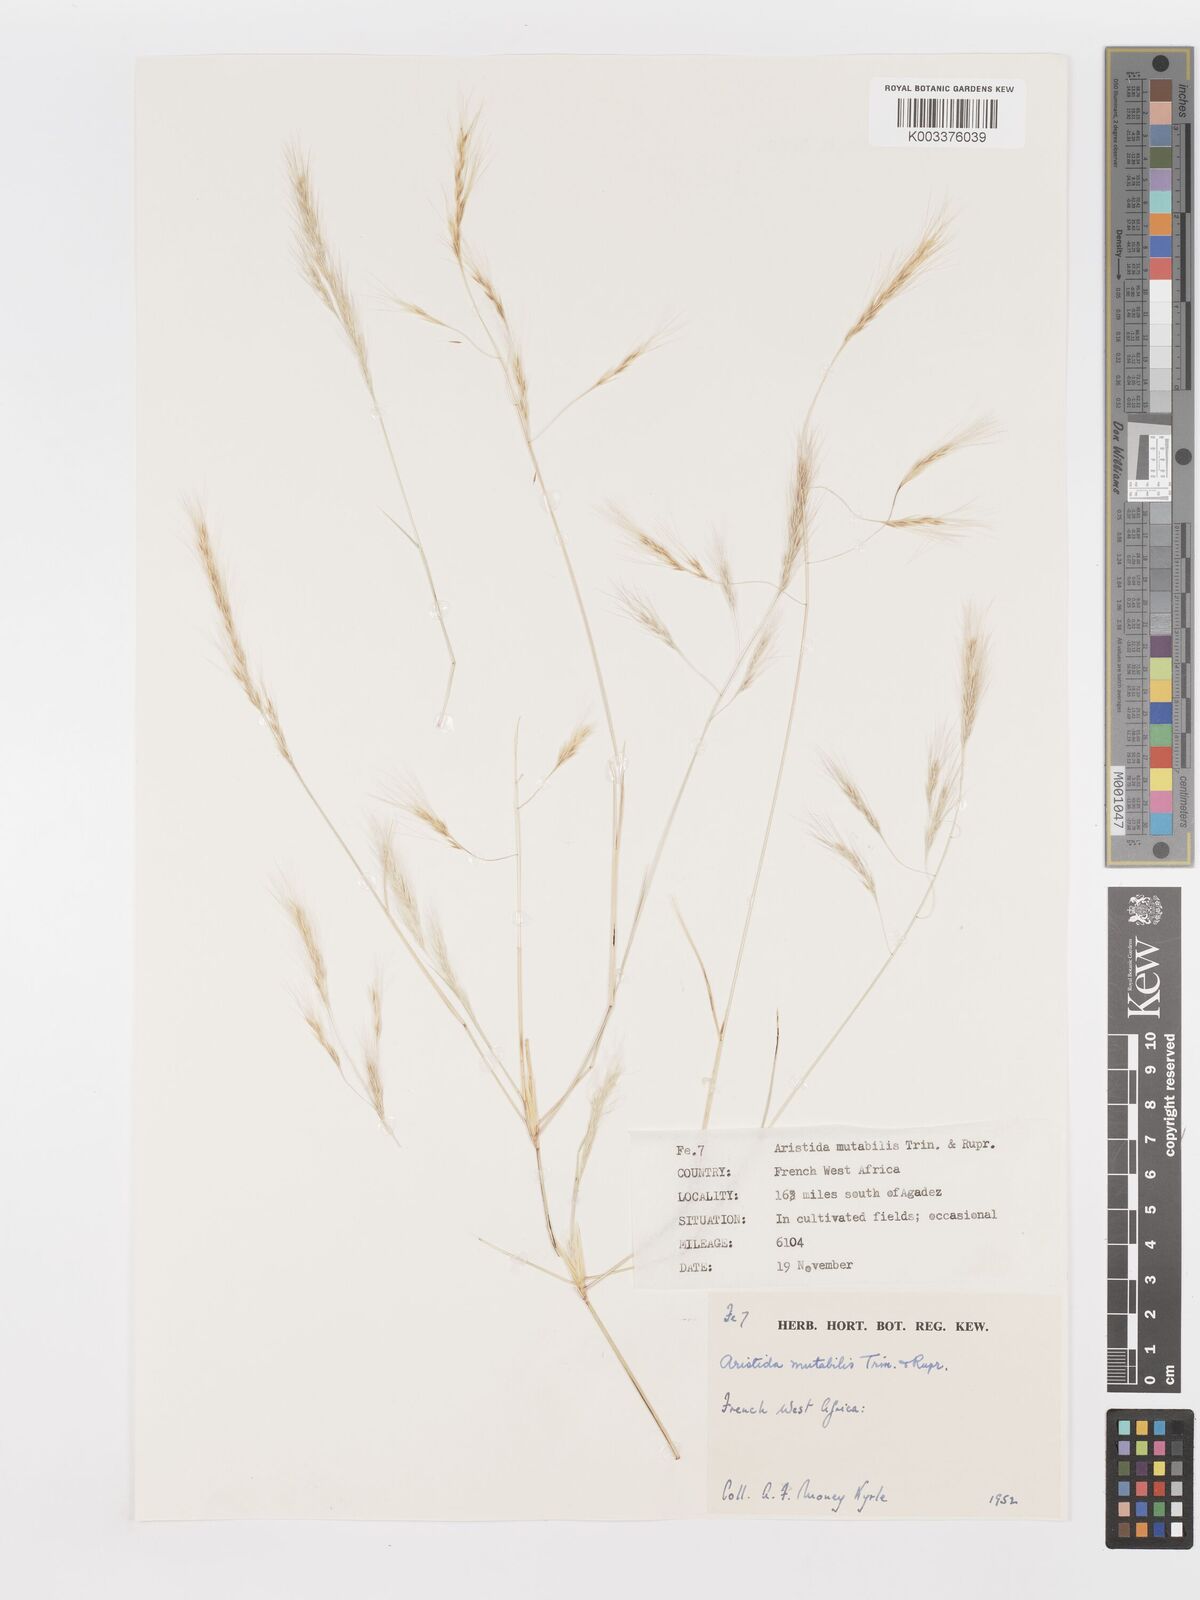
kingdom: Plantae
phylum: Tracheophyta
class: Liliopsida
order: Poales
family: Poaceae
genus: Aristida
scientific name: Aristida mutabilis
